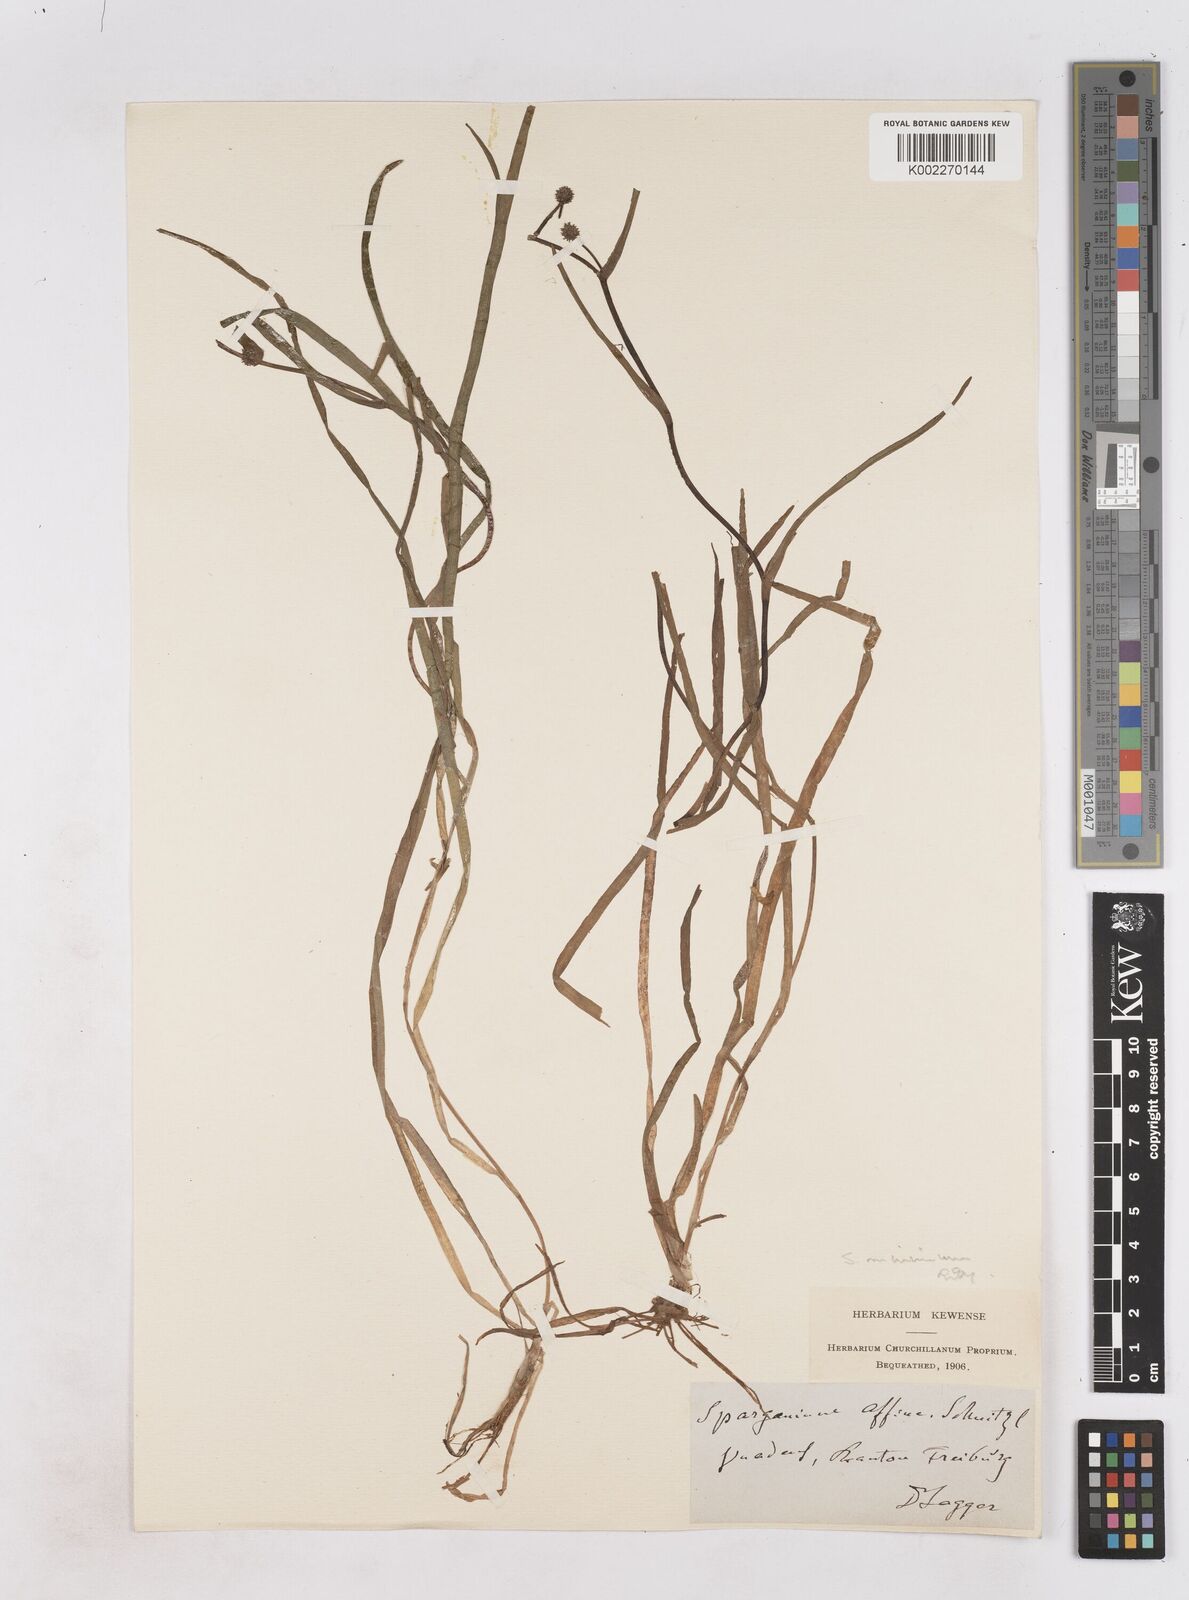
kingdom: Plantae
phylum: Tracheophyta
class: Liliopsida
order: Poales
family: Typhaceae
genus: Sparganium
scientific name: Sparganium natans
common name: Least bur-reed
